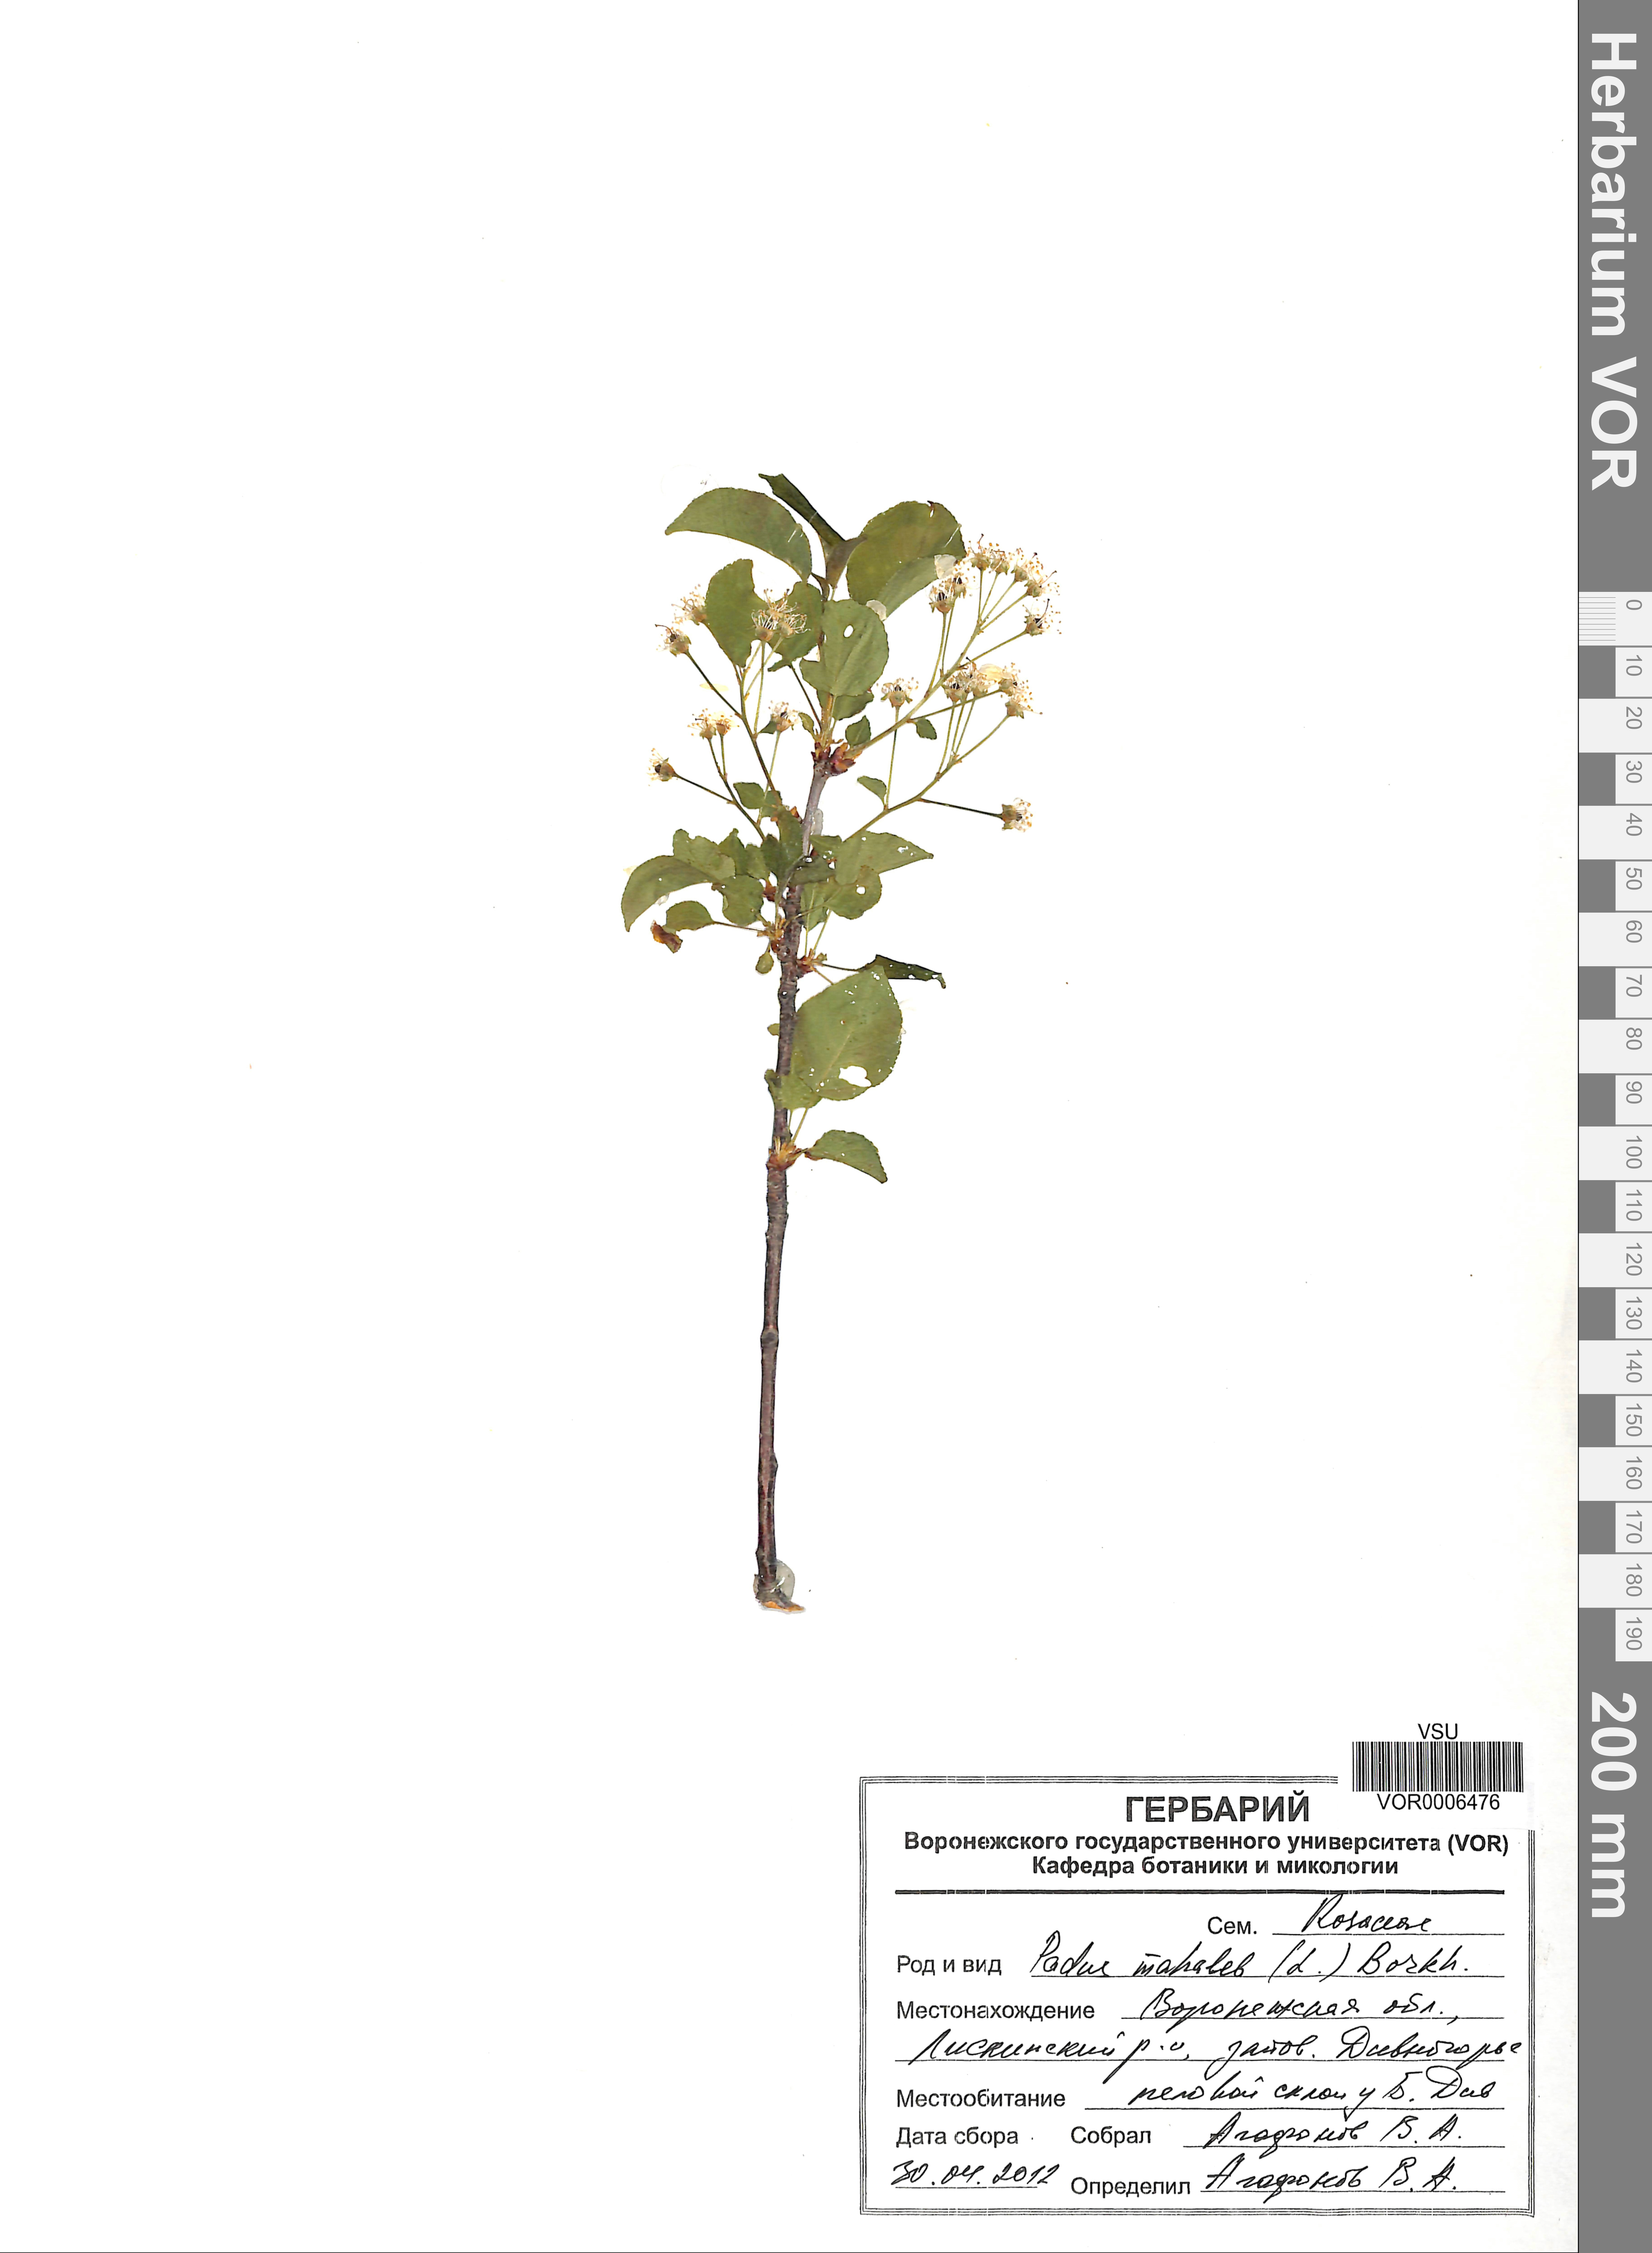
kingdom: Plantae
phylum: Tracheophyta
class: Magnoliopsida
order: Rosales
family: Rosaceae
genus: Prunus
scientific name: Prunus mahaleb
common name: Mahaleb cherry
